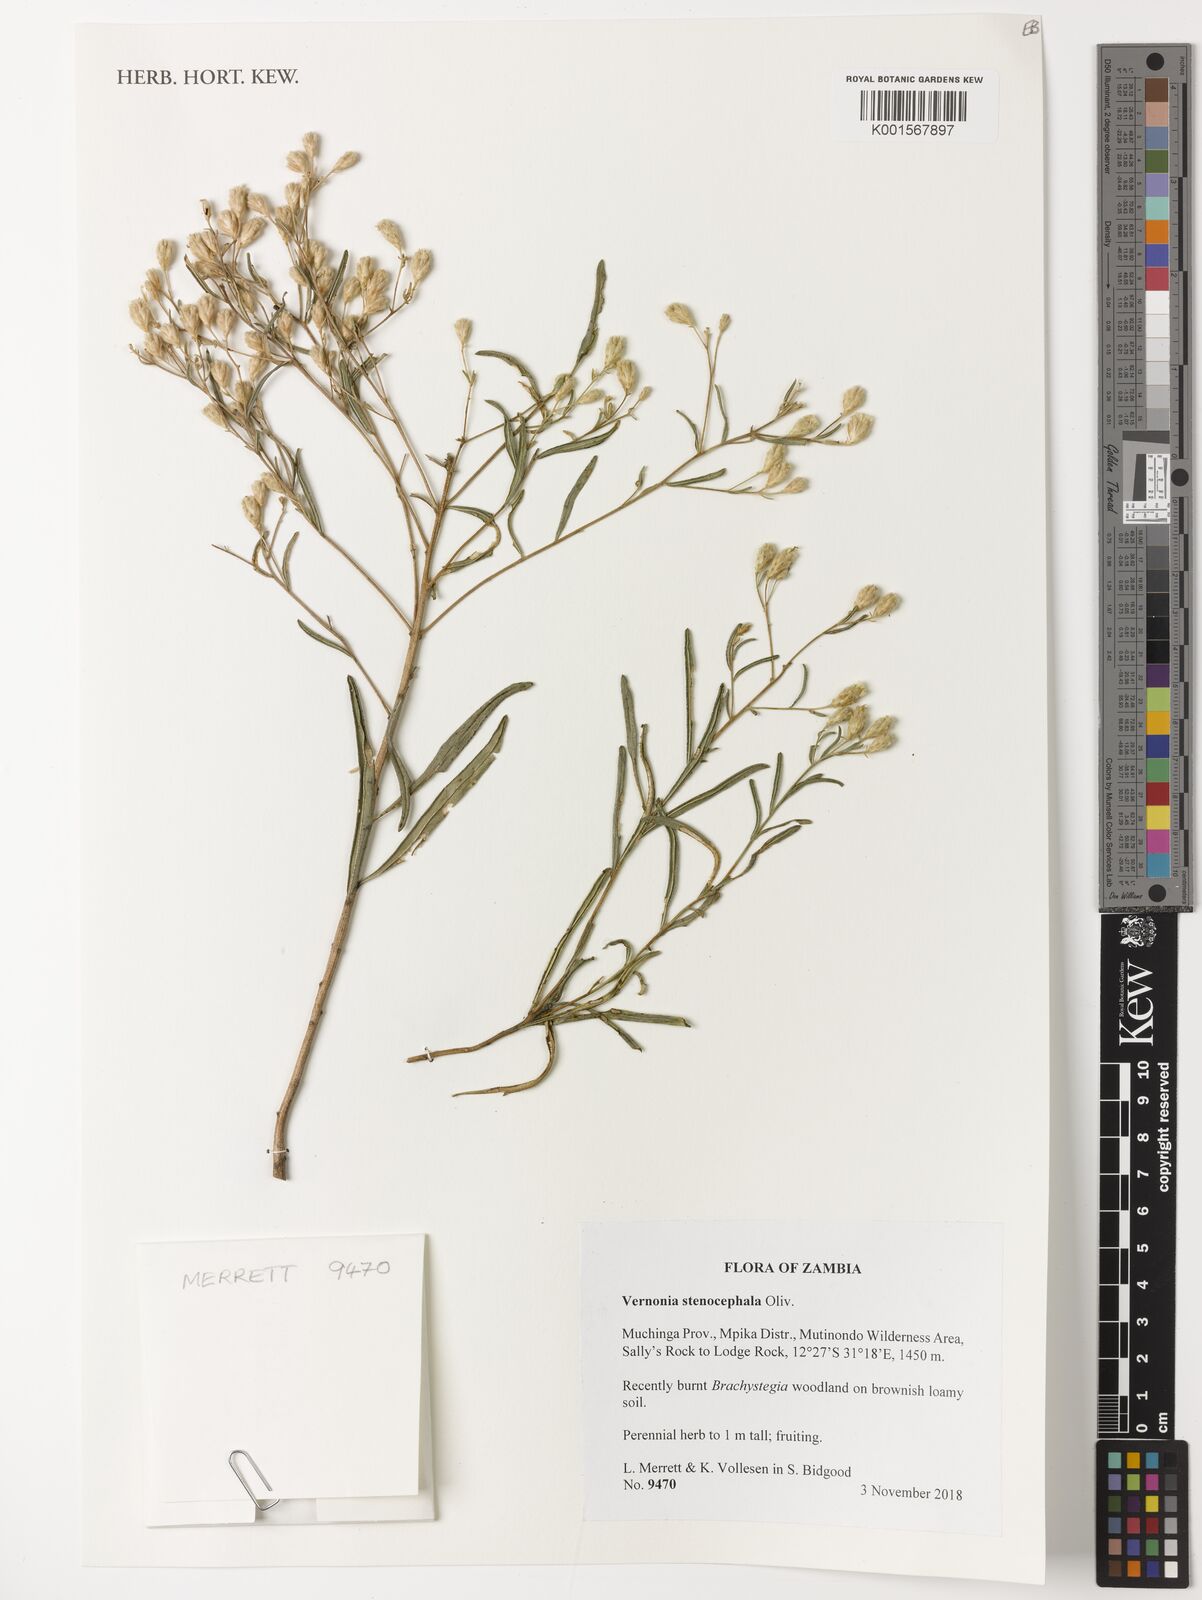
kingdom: Plantae
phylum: Tracheophyta
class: Magnoliopsida
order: Asterales
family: Asteraceae
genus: Oocephala
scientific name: Oocephala stenocephala
